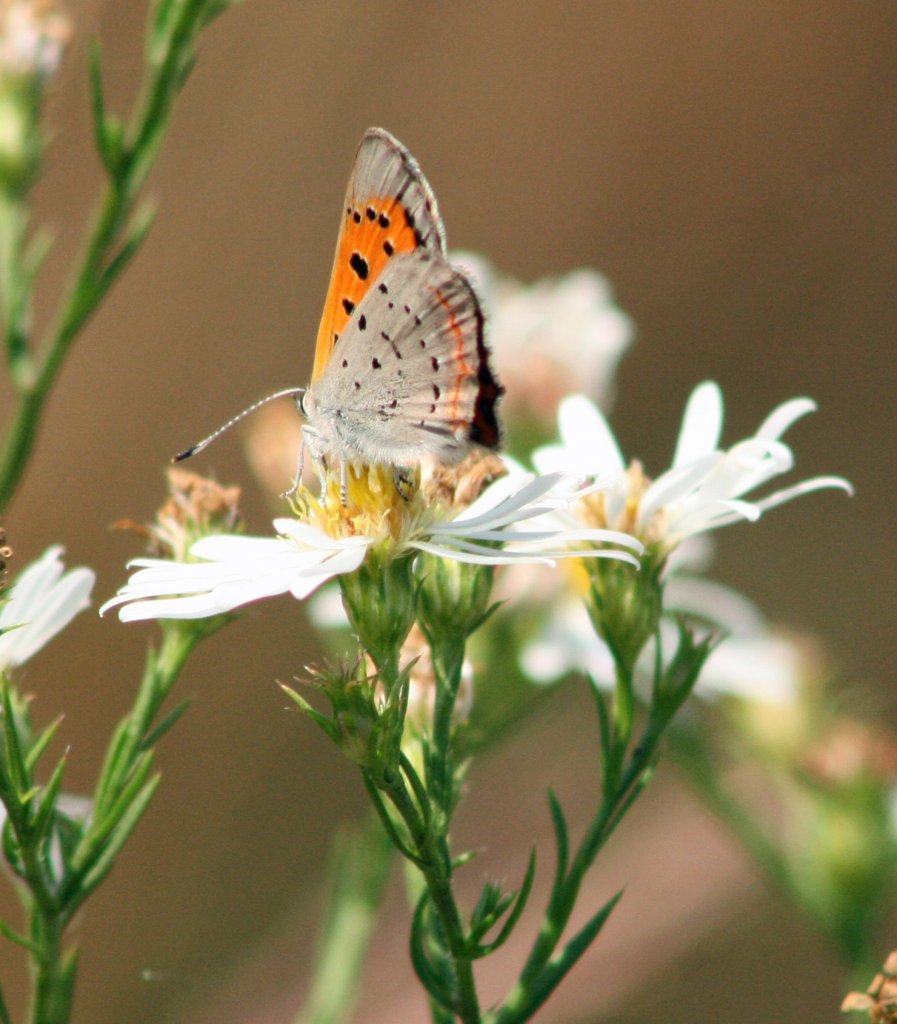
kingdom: Animalia
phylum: Arthropoda
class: Insecta
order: Lepidoptera
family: Lycaenidae
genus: Lycaena
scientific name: Lycaena phlaeas
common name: American Copper
